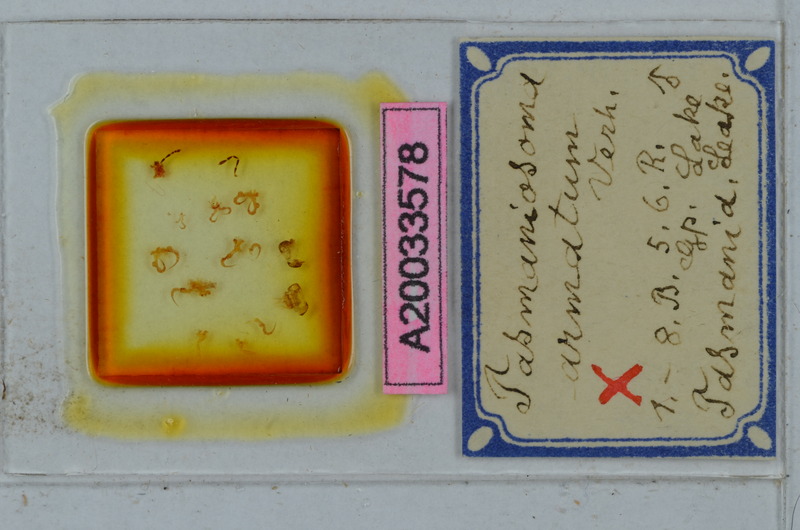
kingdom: Animalia
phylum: Arthropoda
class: Diplopoda
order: Polydesmida
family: Dalodesmidae
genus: Tasmaniosoma
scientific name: Tasmaniosoma armatum
